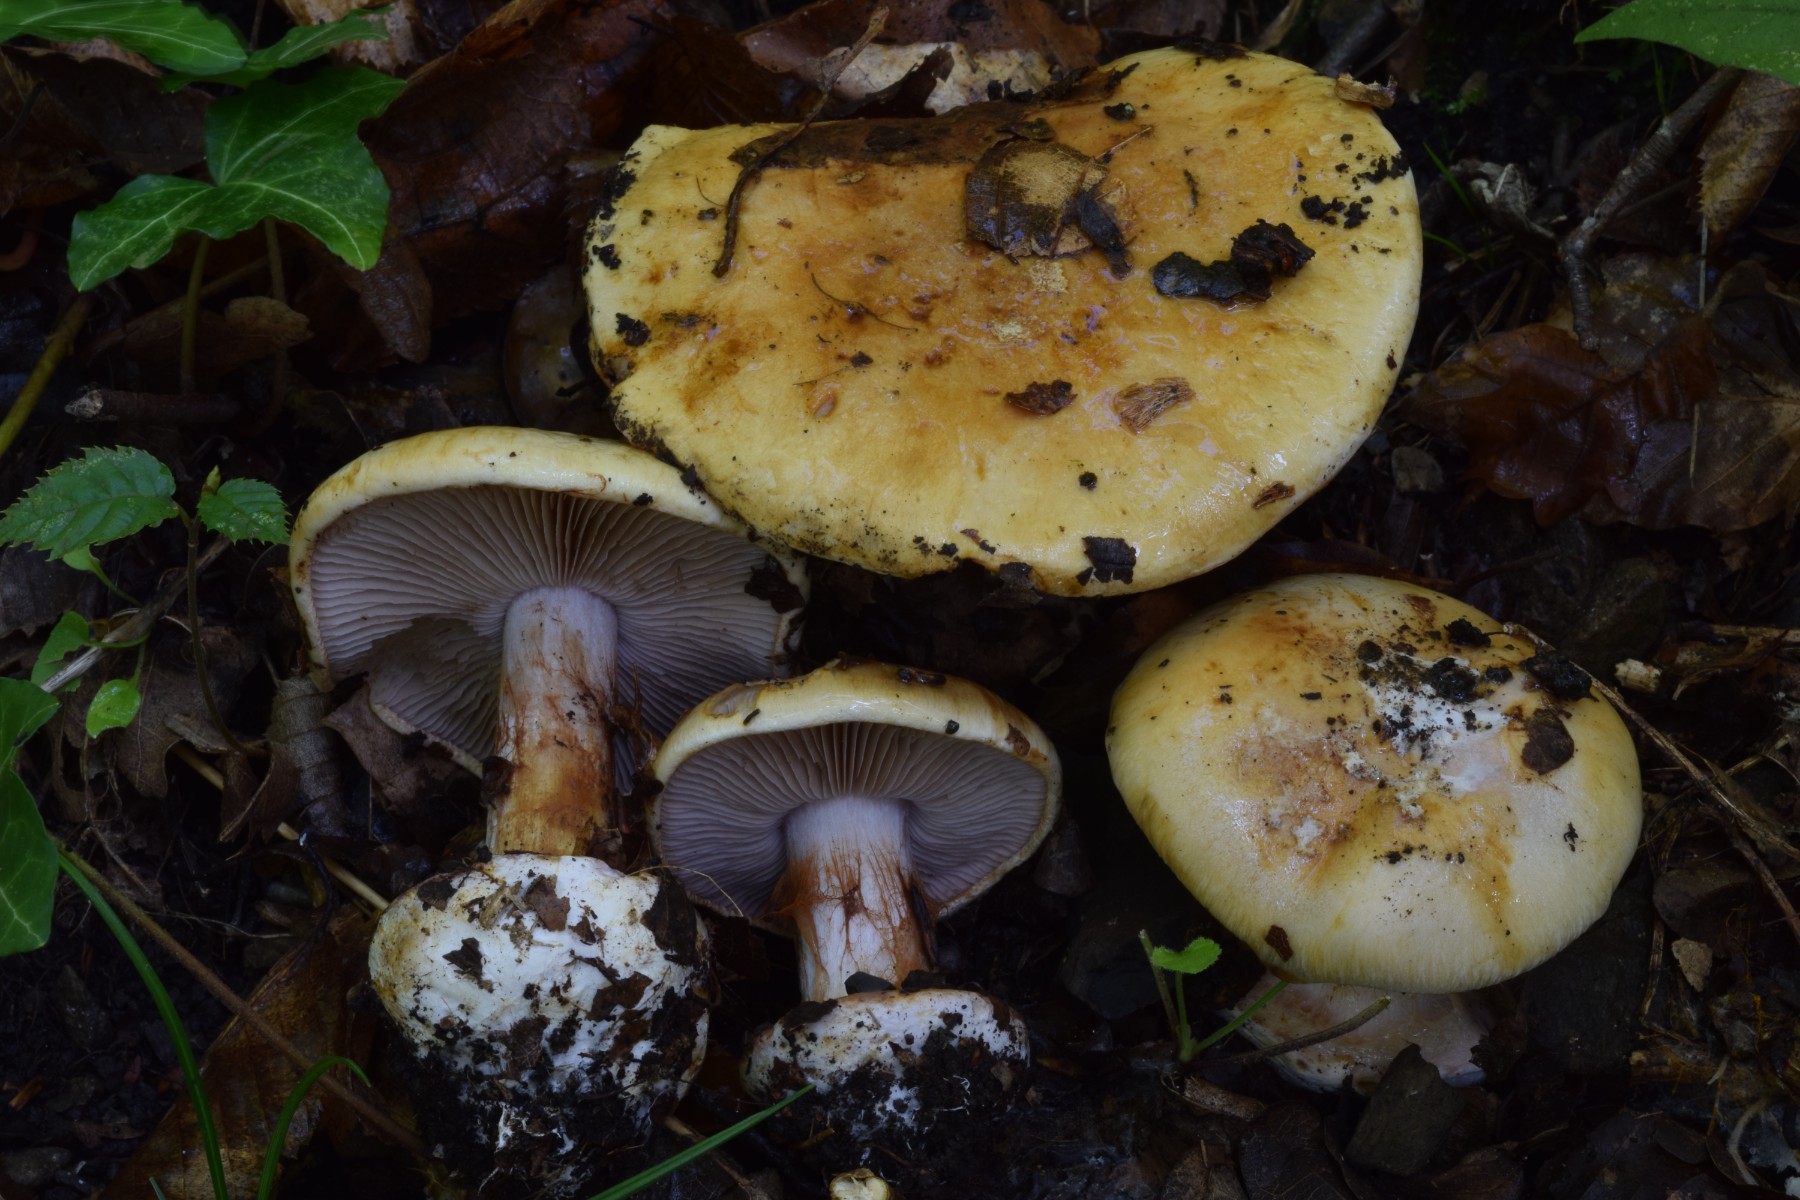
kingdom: Fungi
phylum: Basidiomycota
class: Agaricomycetes
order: Agaricales
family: Cortinariaceae
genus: Calonarius
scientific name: Calonarius lilacinovelatus
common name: violetknoldet slørhat
